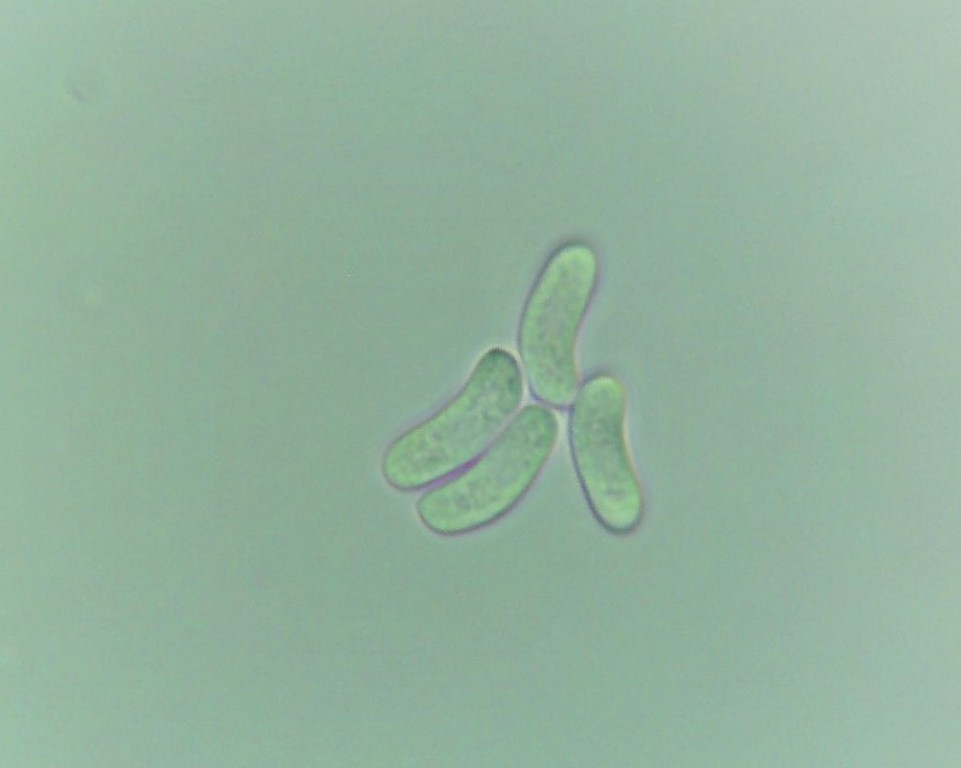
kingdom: Fungi
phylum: Basidiomycota
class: Agaricomycetes
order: Russulales
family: Peniophoraceae
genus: Peniophora
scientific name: Peniophora
